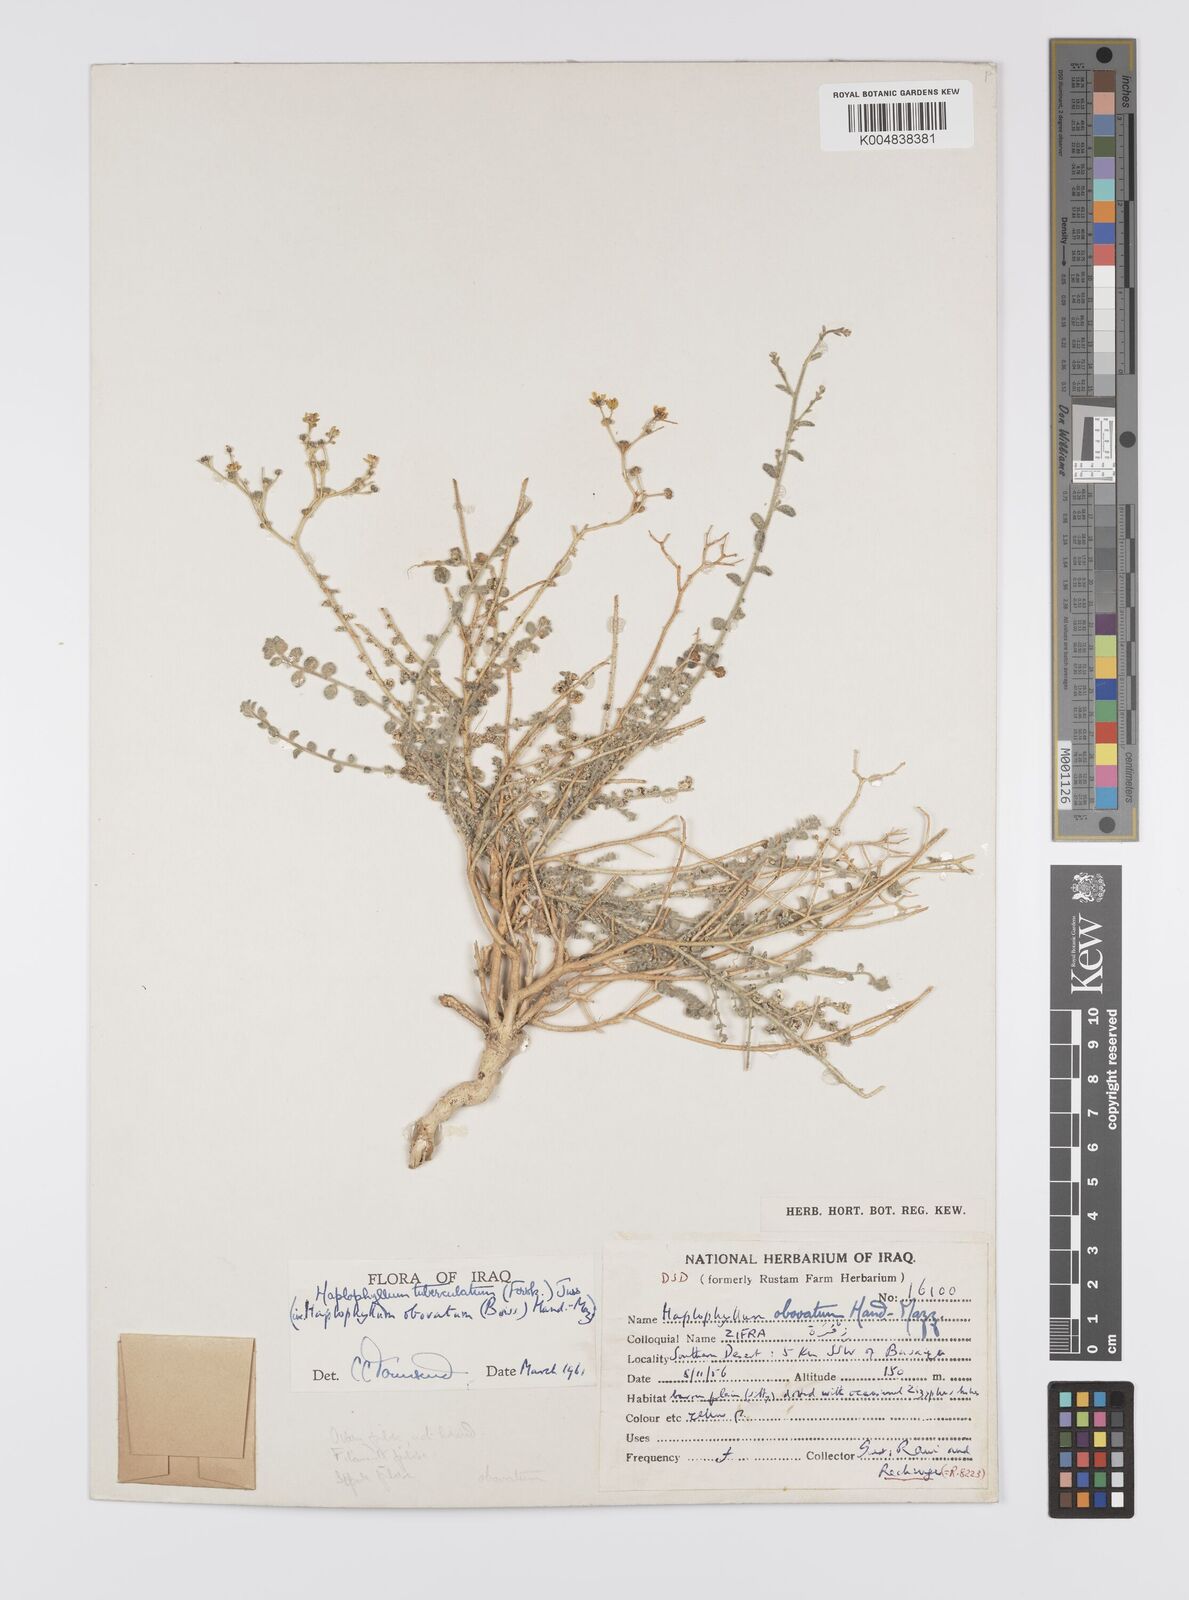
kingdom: Plantae
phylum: Tracheophyta
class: Magnoliopsida
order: Sapindales
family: Rutaceae
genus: Haplophyllum
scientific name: Haplophyllum tuberculatum
